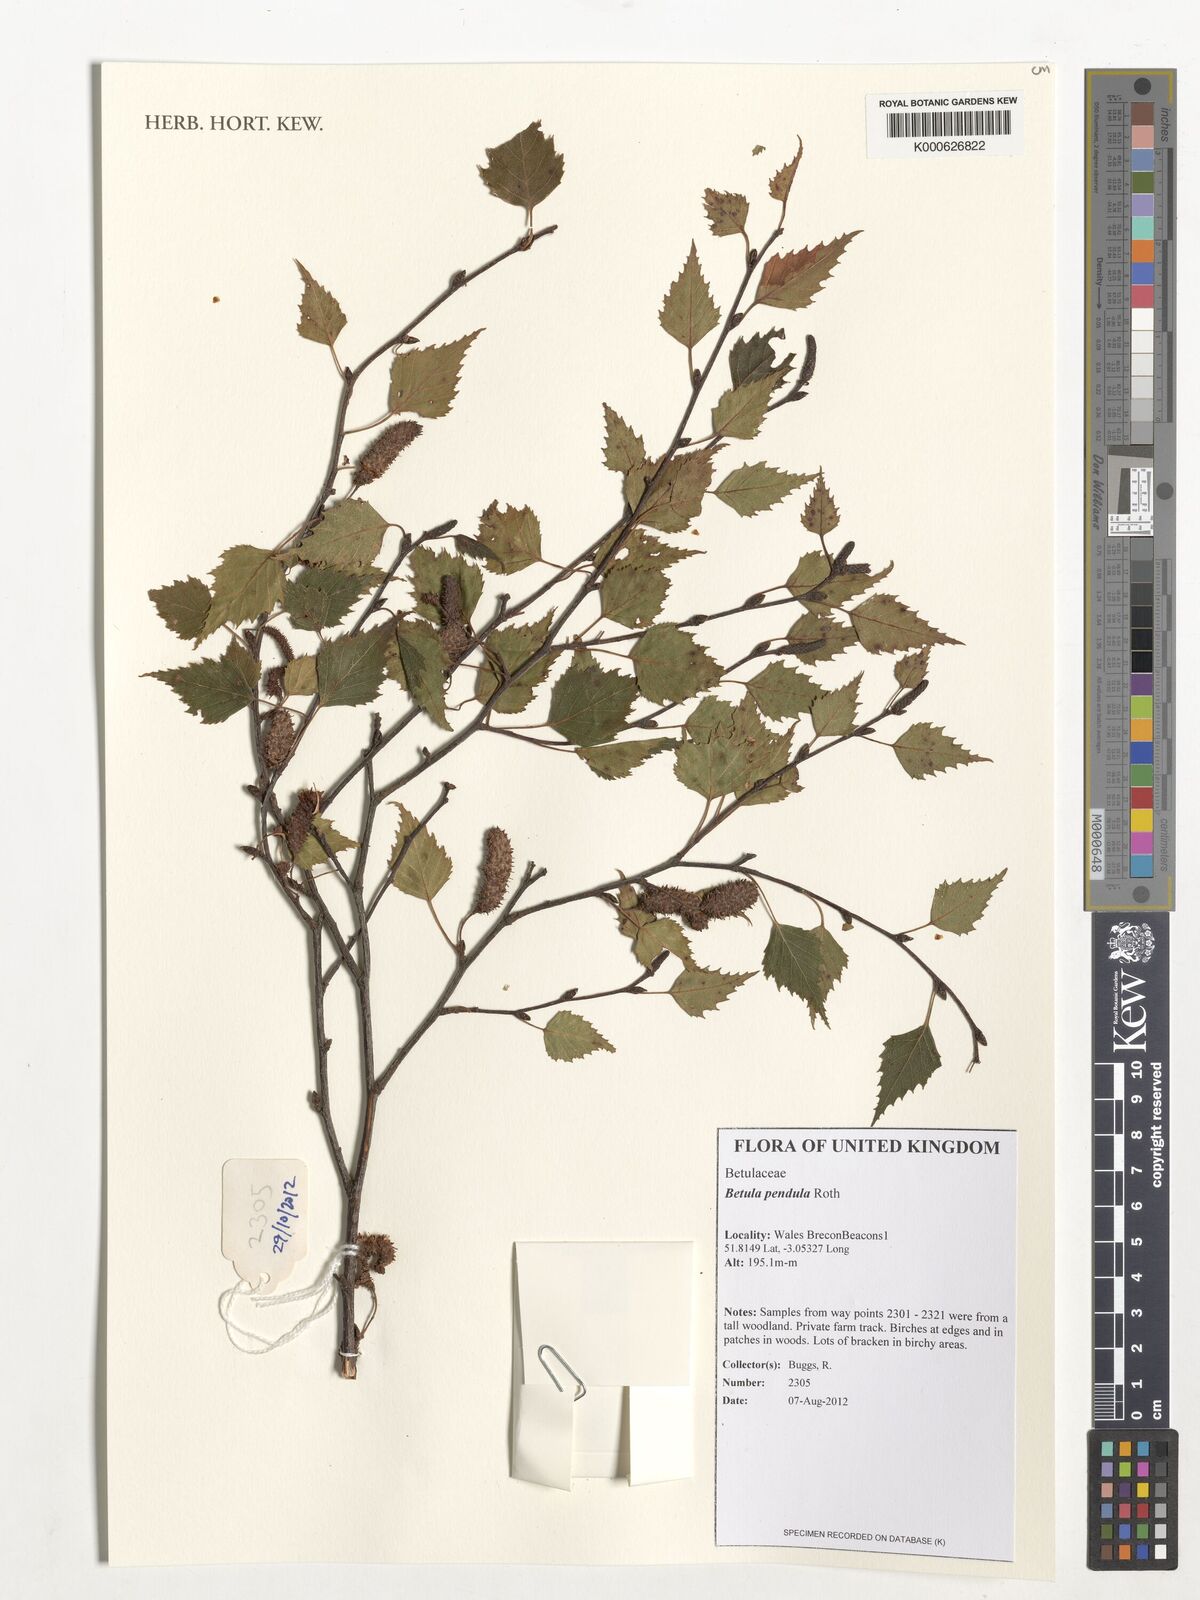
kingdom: Plantae
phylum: Tracheophyta
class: Magnoliopsida
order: Fagales
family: Betulaceae
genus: Betula
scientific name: Betula pendula
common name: Silver birch
